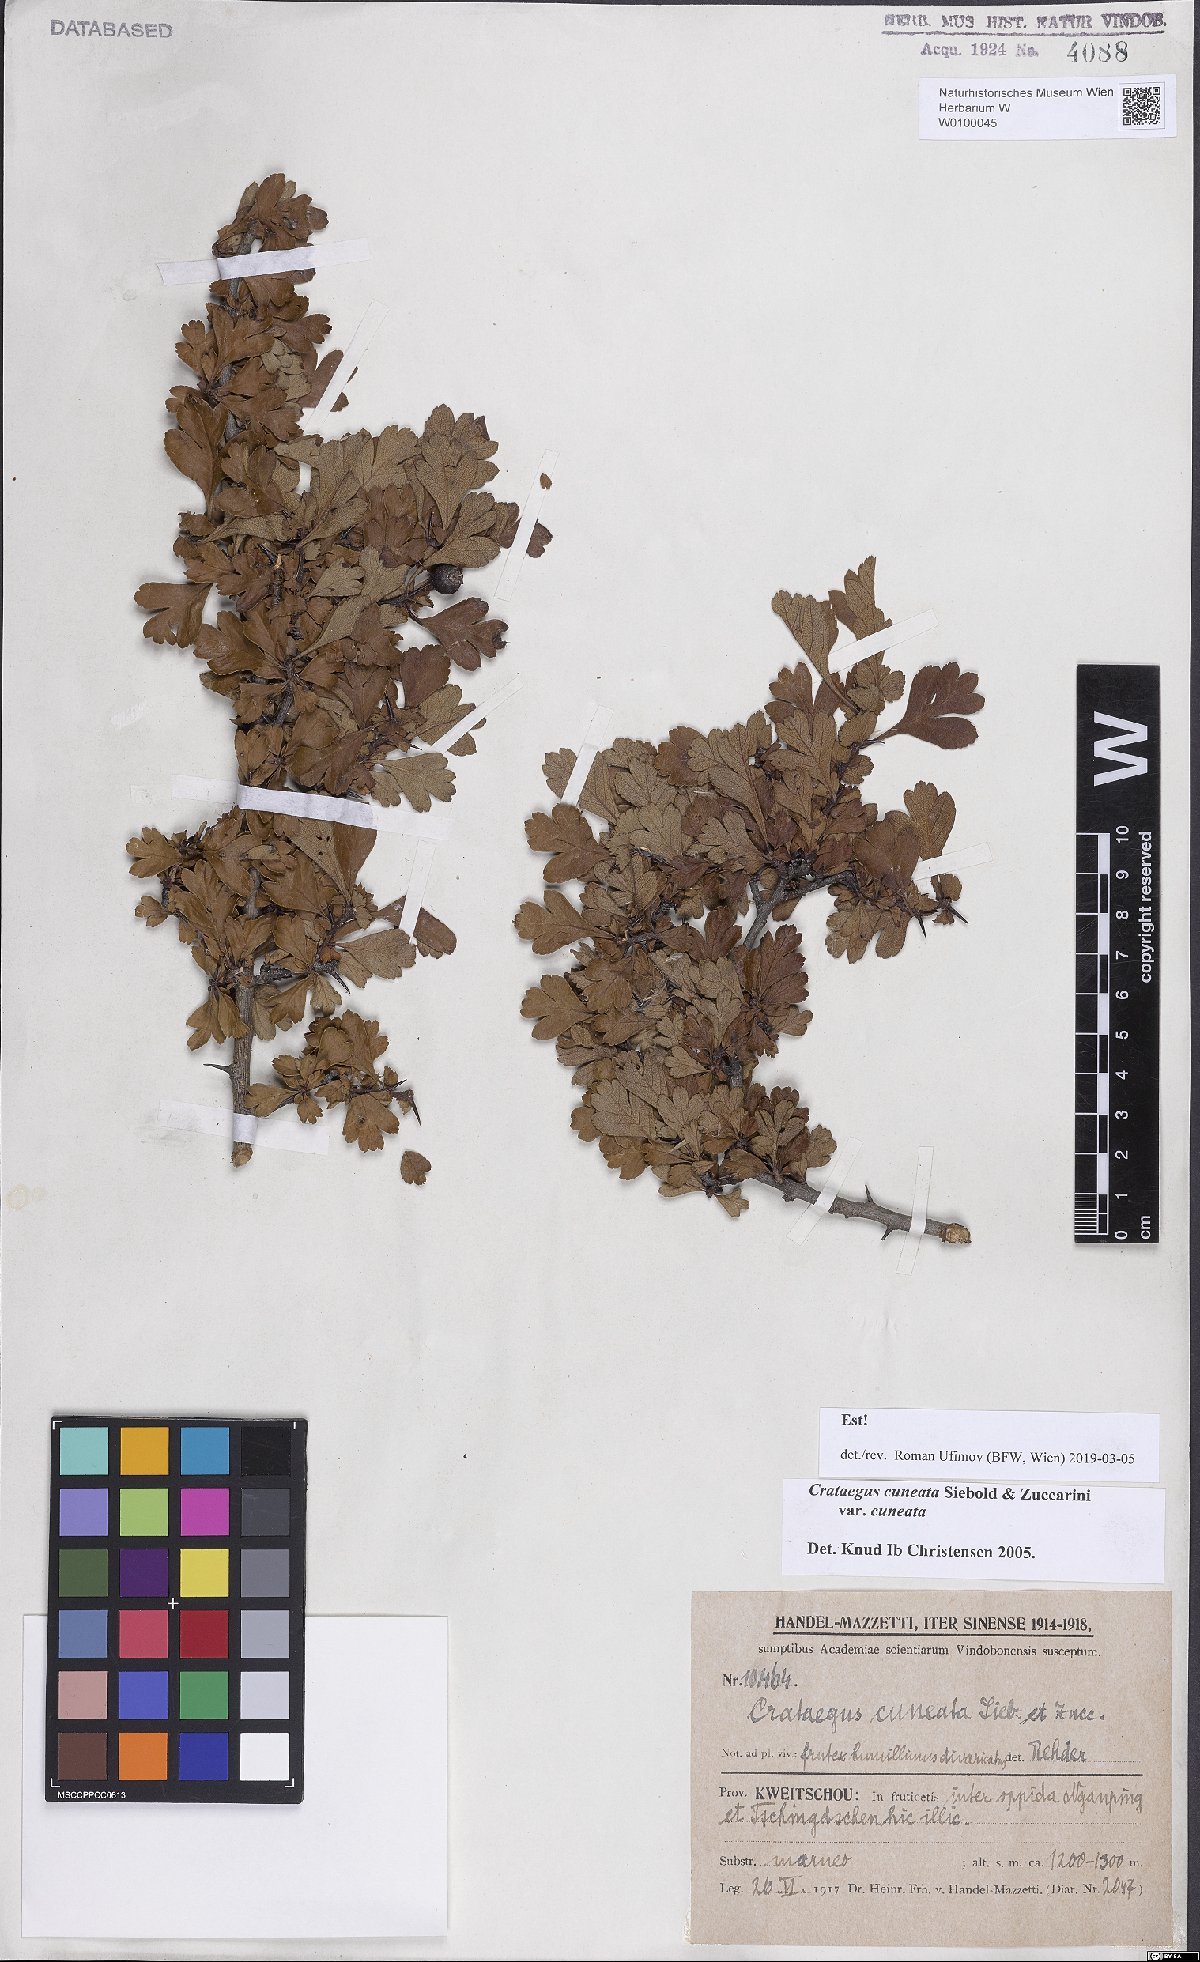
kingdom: Plantae
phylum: Tracheophyta
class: Magnoliopsida
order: Rosales
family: Rosaceae
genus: Crataegus
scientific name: Crataegus cuneata
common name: Chinese hawthorn
